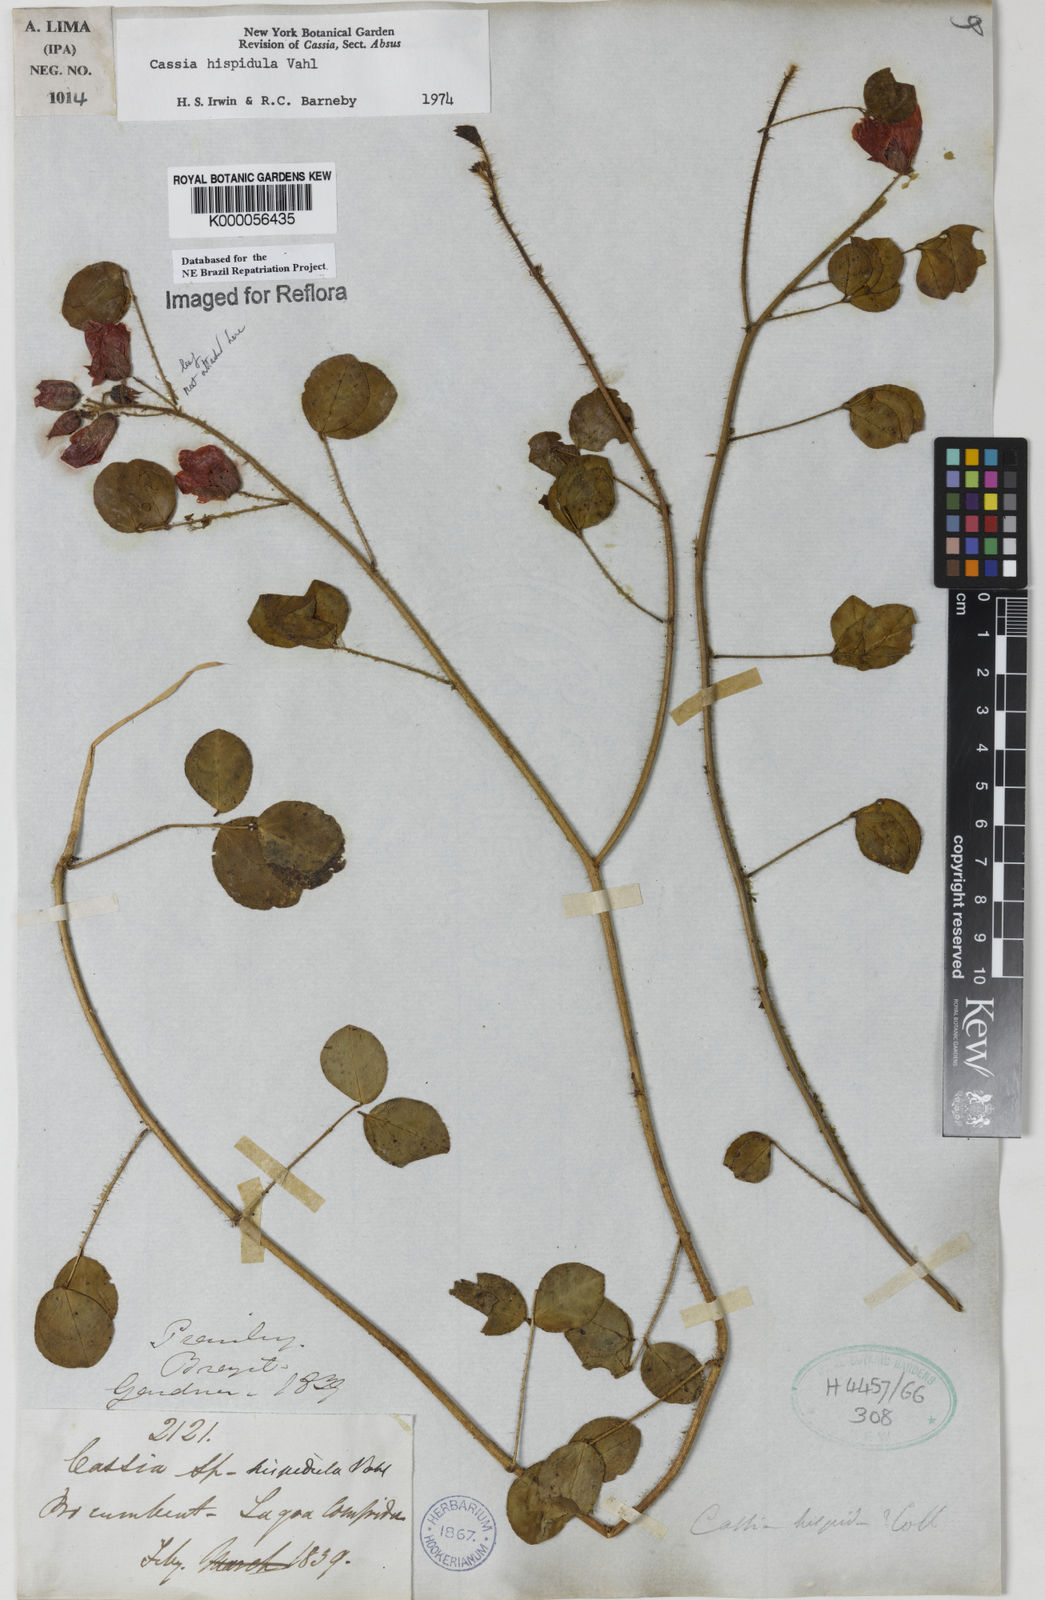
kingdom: Plantae
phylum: Tracheophyta
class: Magnoliopsida
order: Fabales
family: Fabaceae
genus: Chamaecrista
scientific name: Chamaecrista hispidula
